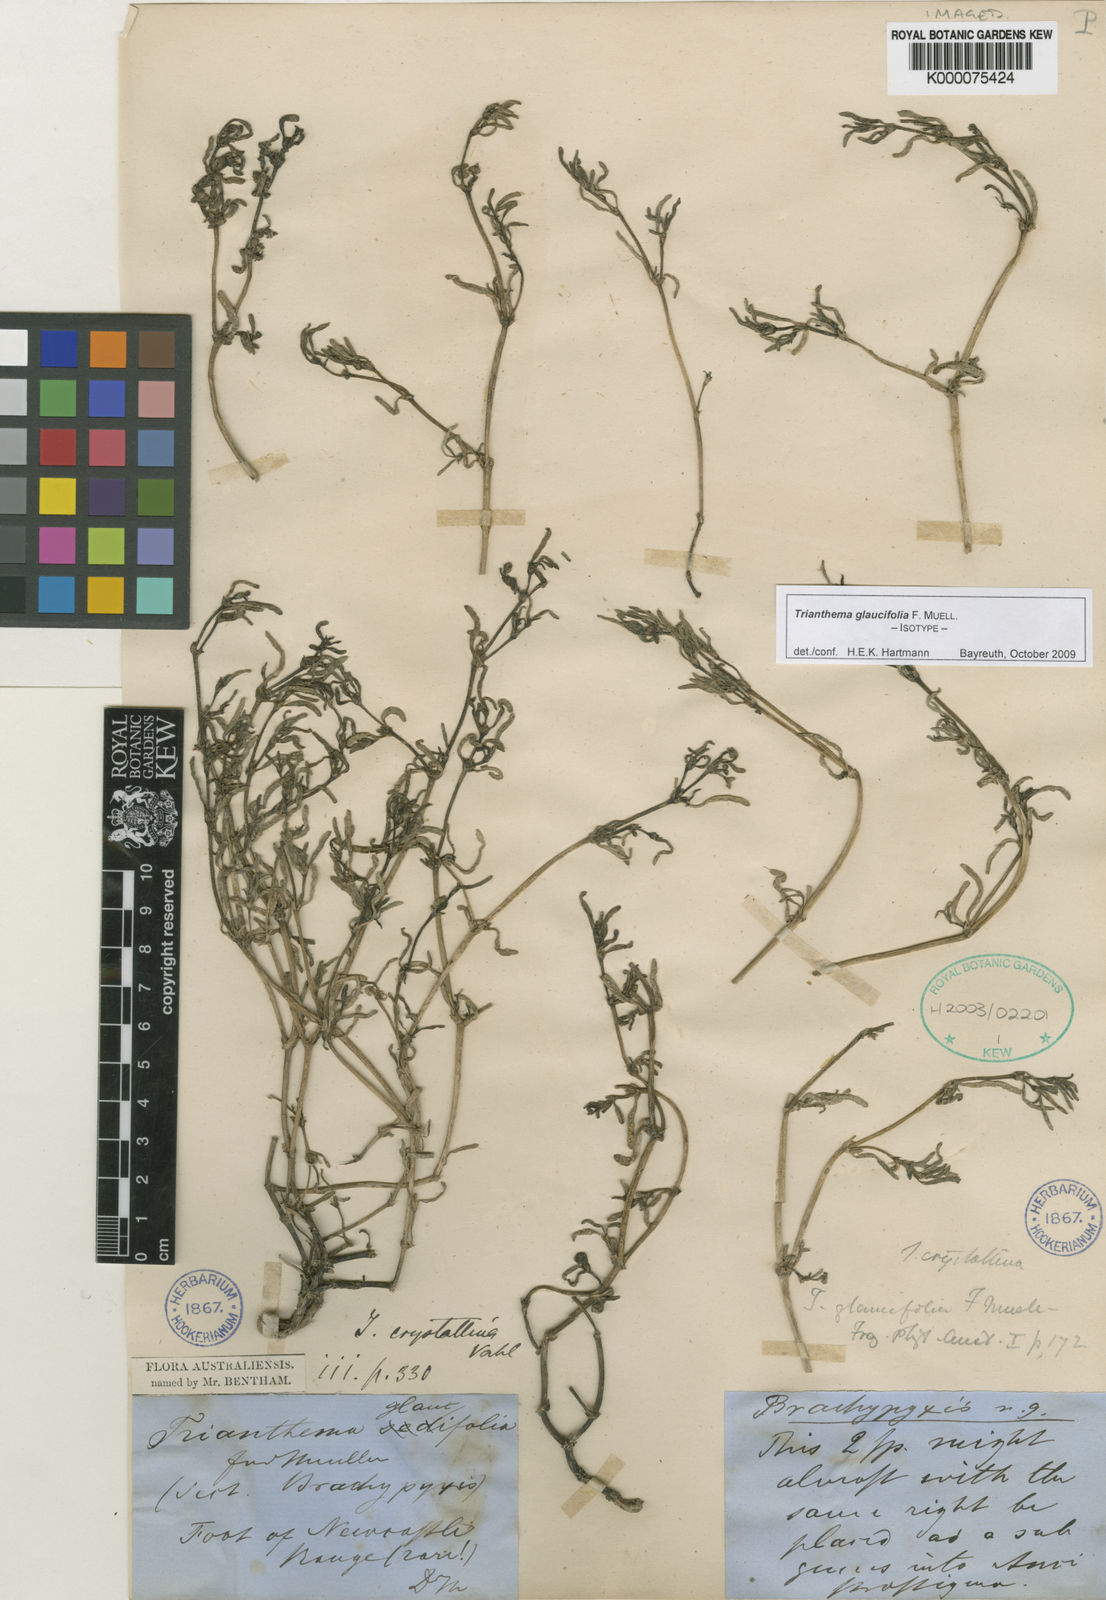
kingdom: Plantae
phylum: Tracheophyta
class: Magnoliopsida
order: Caryophyllales
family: Aizoaceae
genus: Trianthema
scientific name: Trianthema triquetrum
